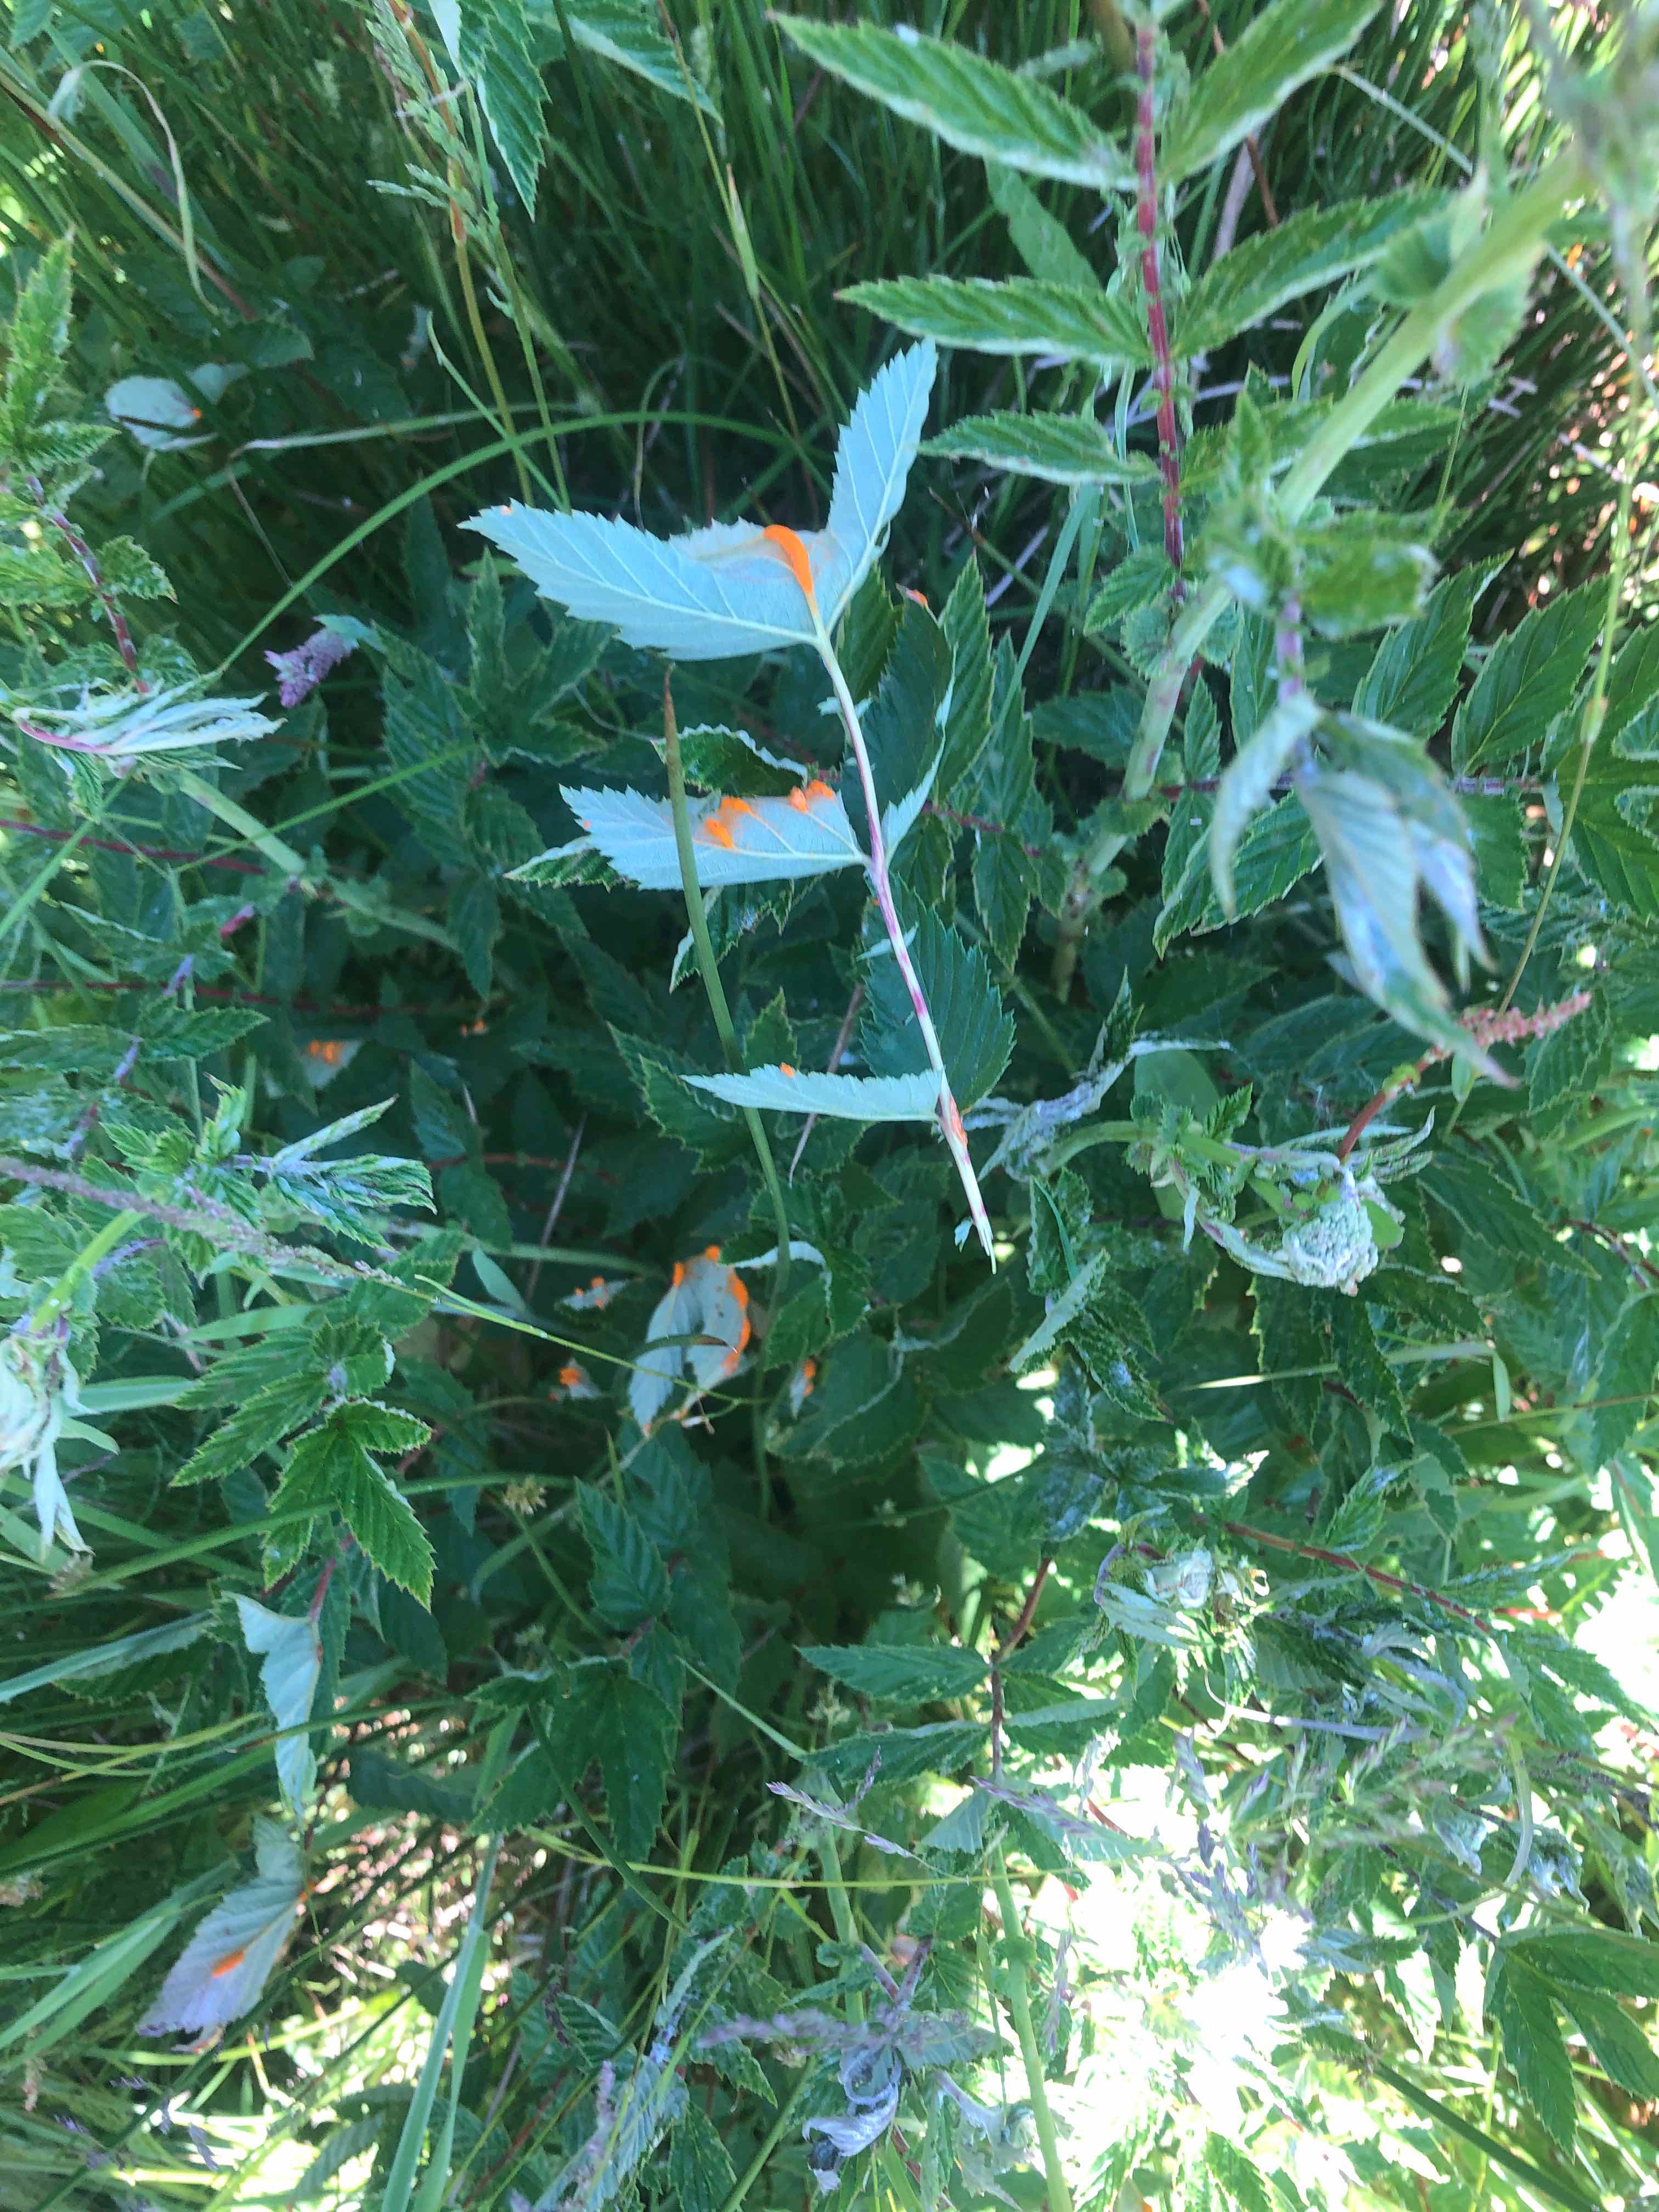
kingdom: Fungi
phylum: Basidiomycota
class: Pucciniomycetes
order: Pucciniales
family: Raveneliaceae
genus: Triphragmium
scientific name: Triphragmium ulmariae
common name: almindelig mjødurtrust
